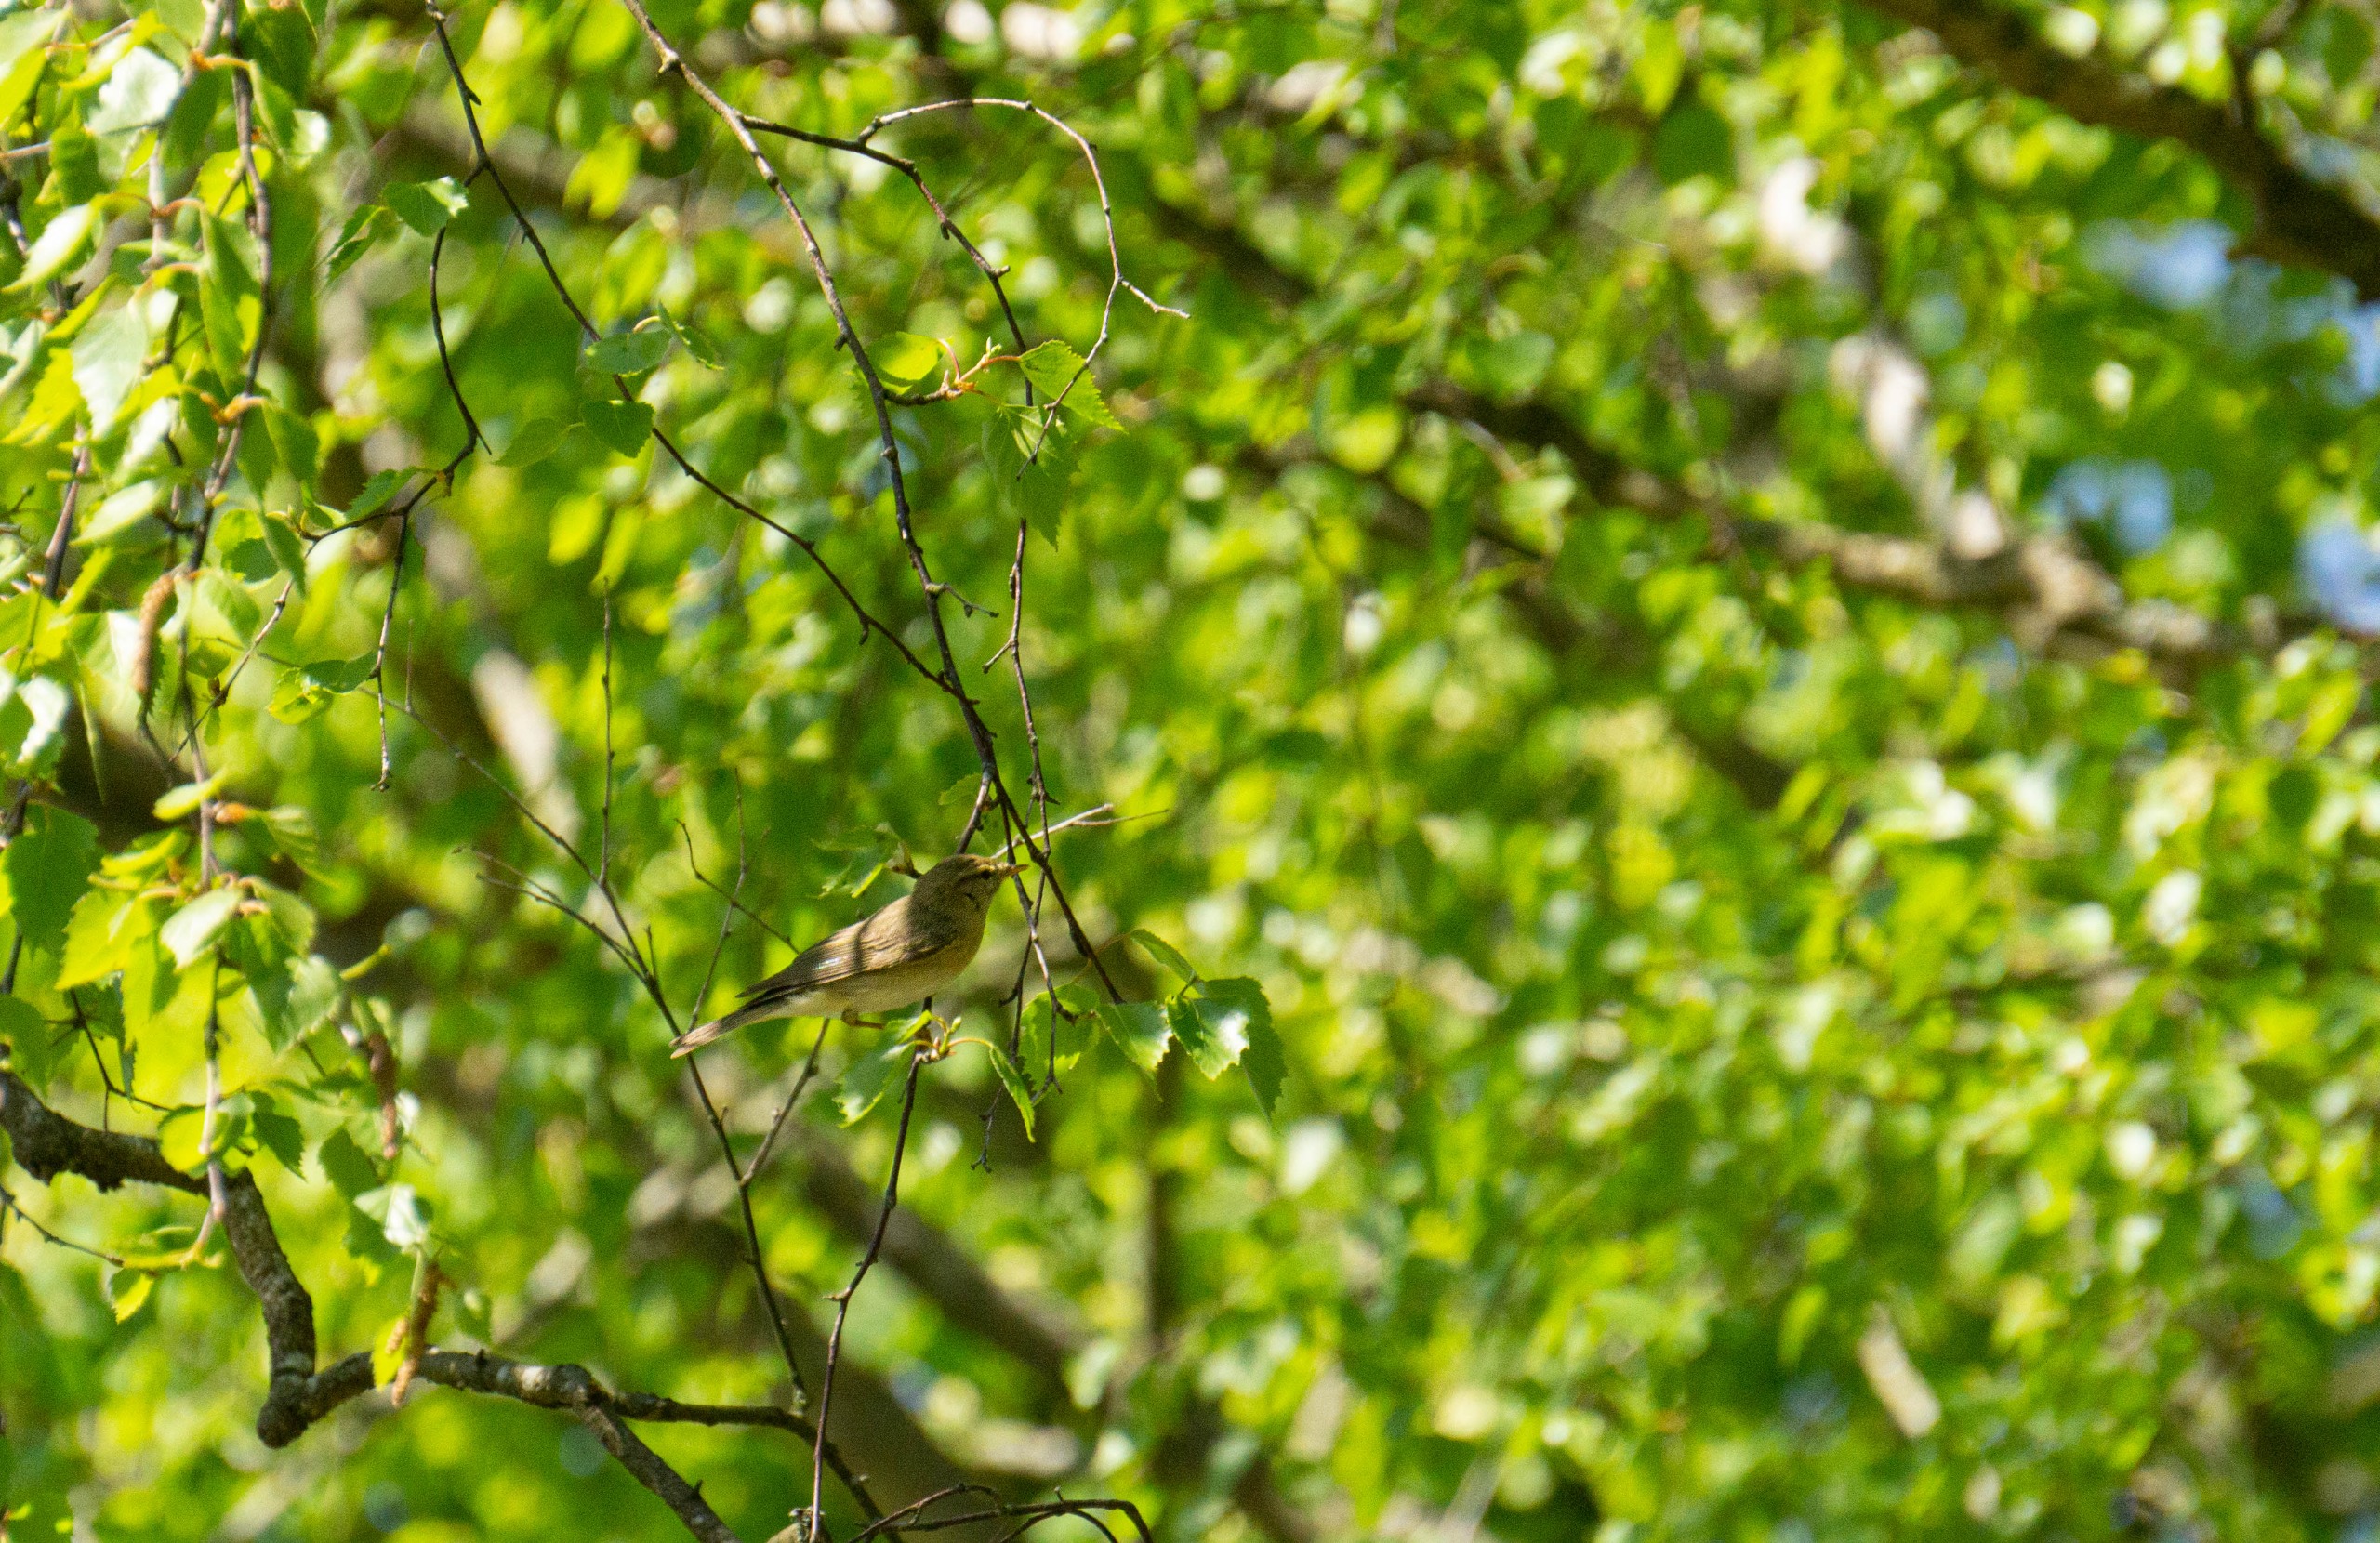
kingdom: Animalia
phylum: Chordata
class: Aves
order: Passeriformes
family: Phylloscopidae
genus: Phylloscopus
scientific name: Phylloscopus trochilus
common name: Løvsanger
